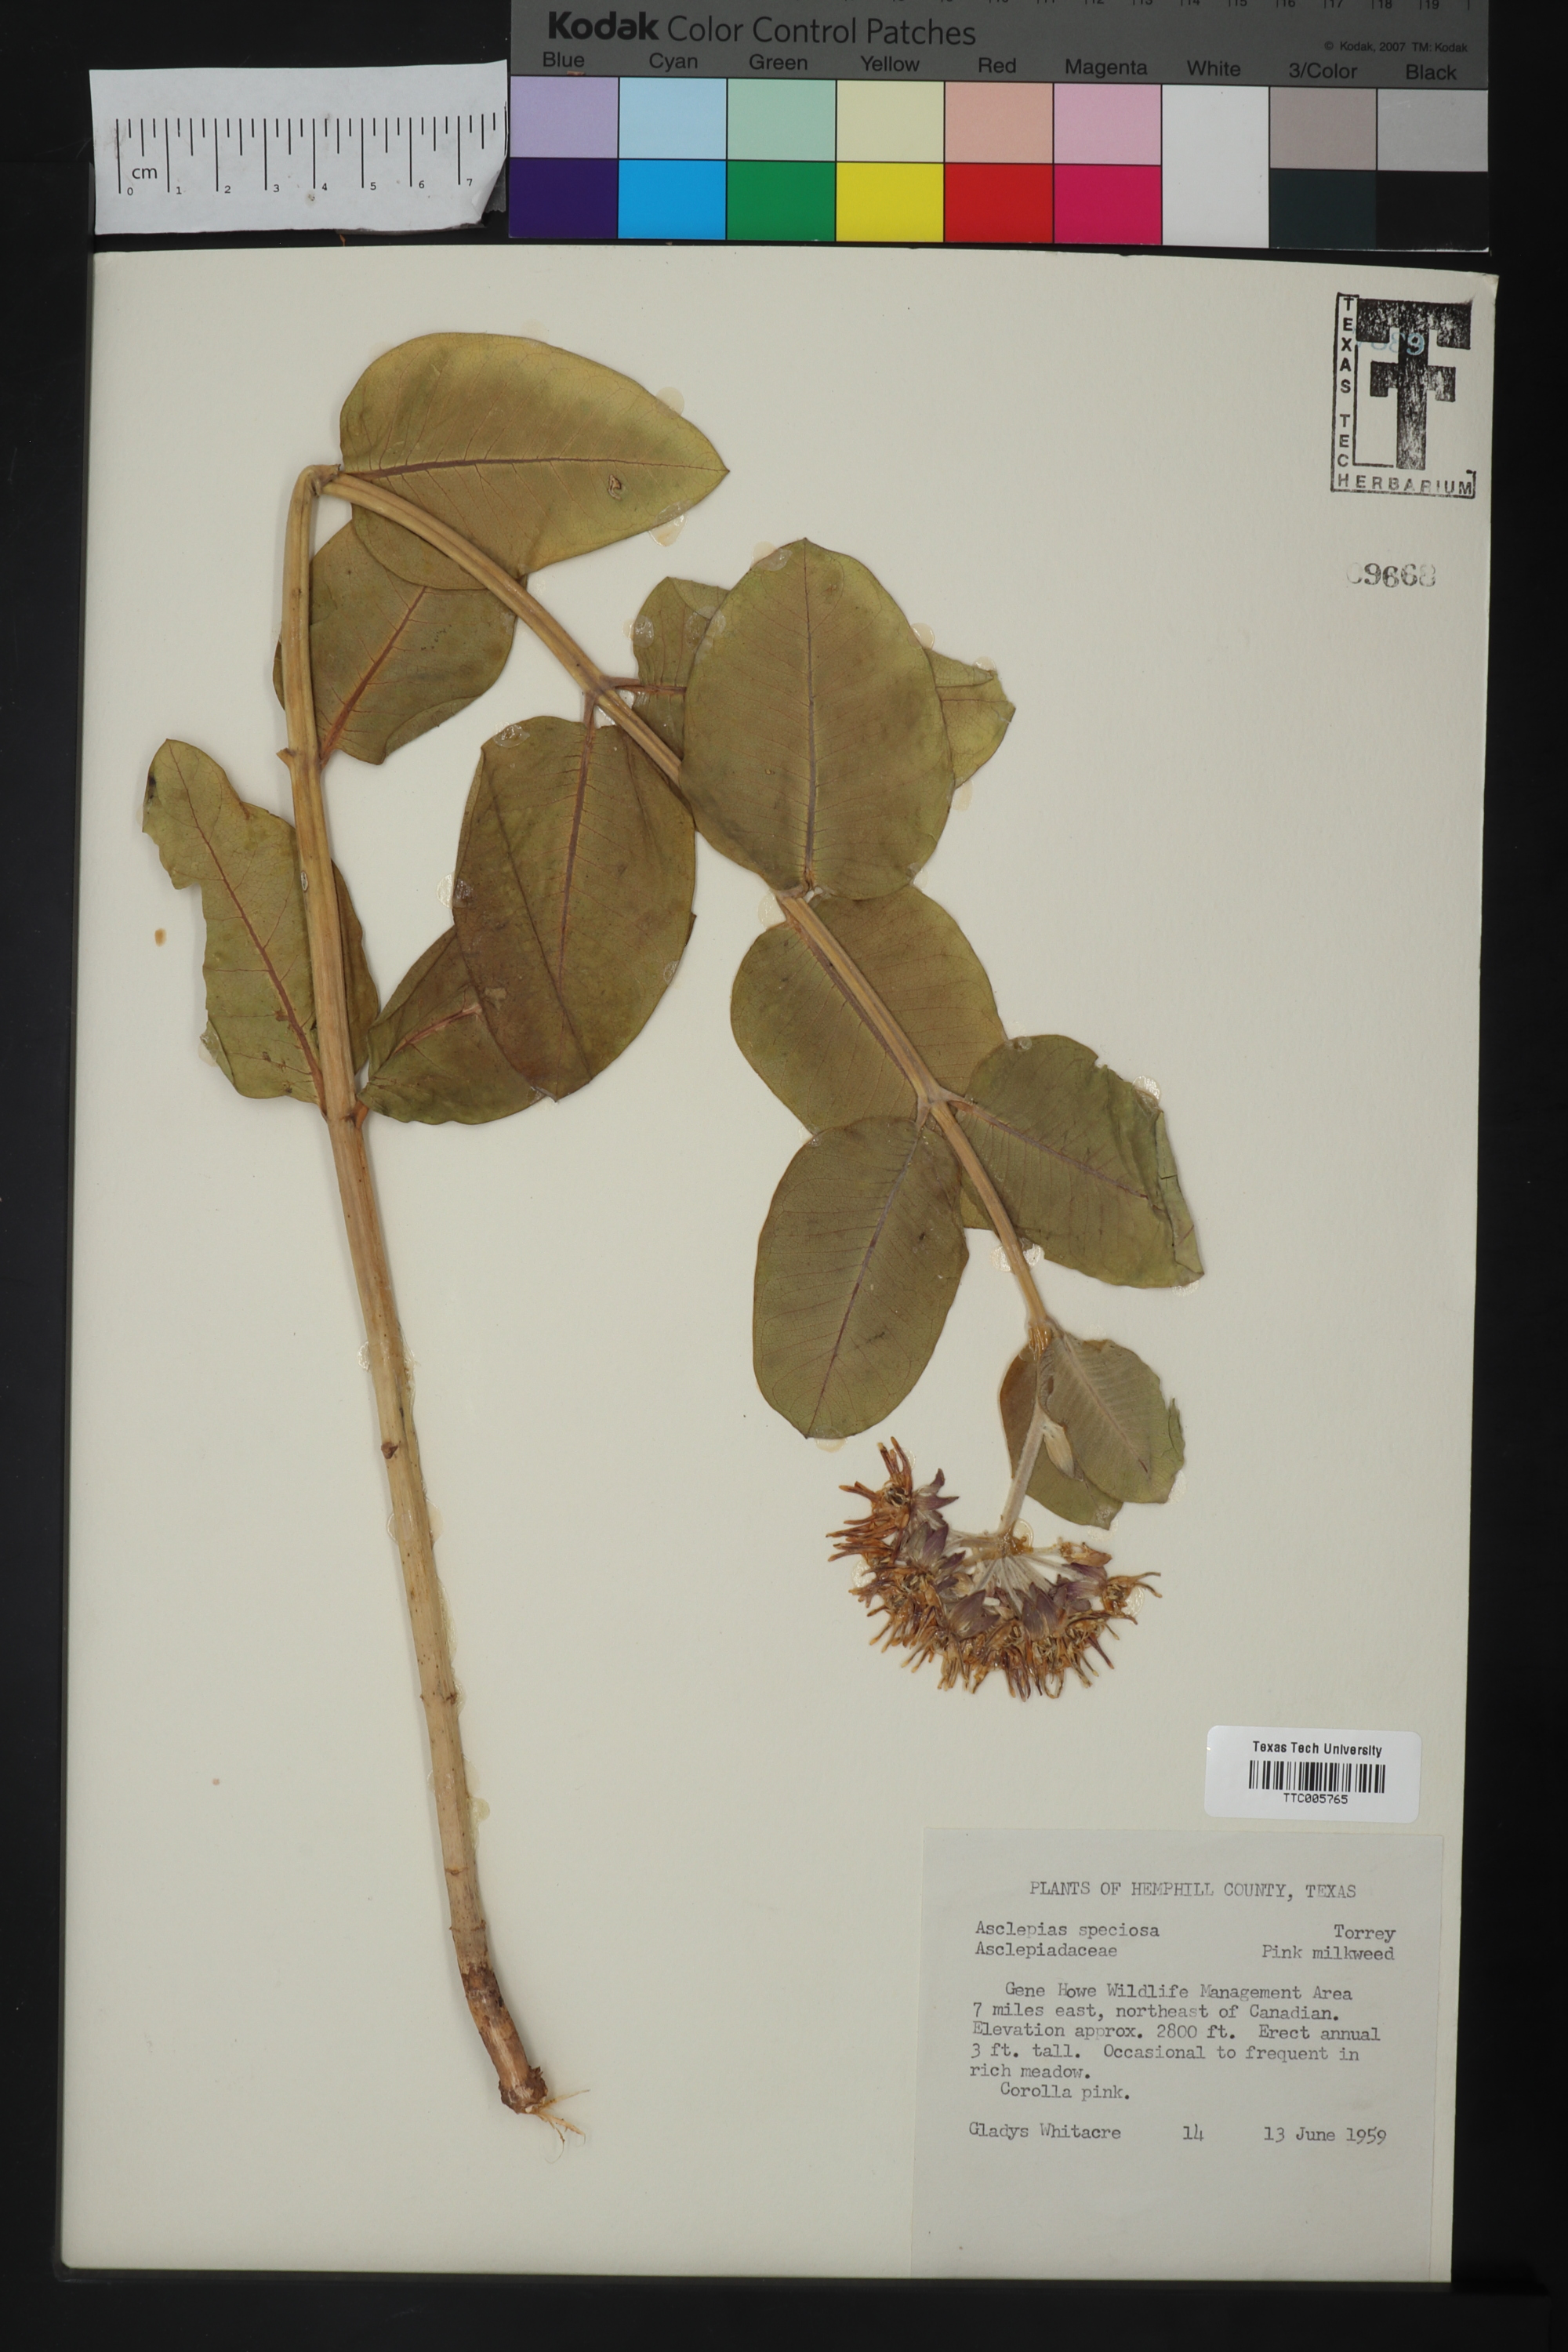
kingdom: Plantae
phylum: Tracheophyta
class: Magnoliopsida
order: Gentianales
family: Apocynaceae
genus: Asclepias
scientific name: Asclepias speciosa
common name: Showy milkweed
